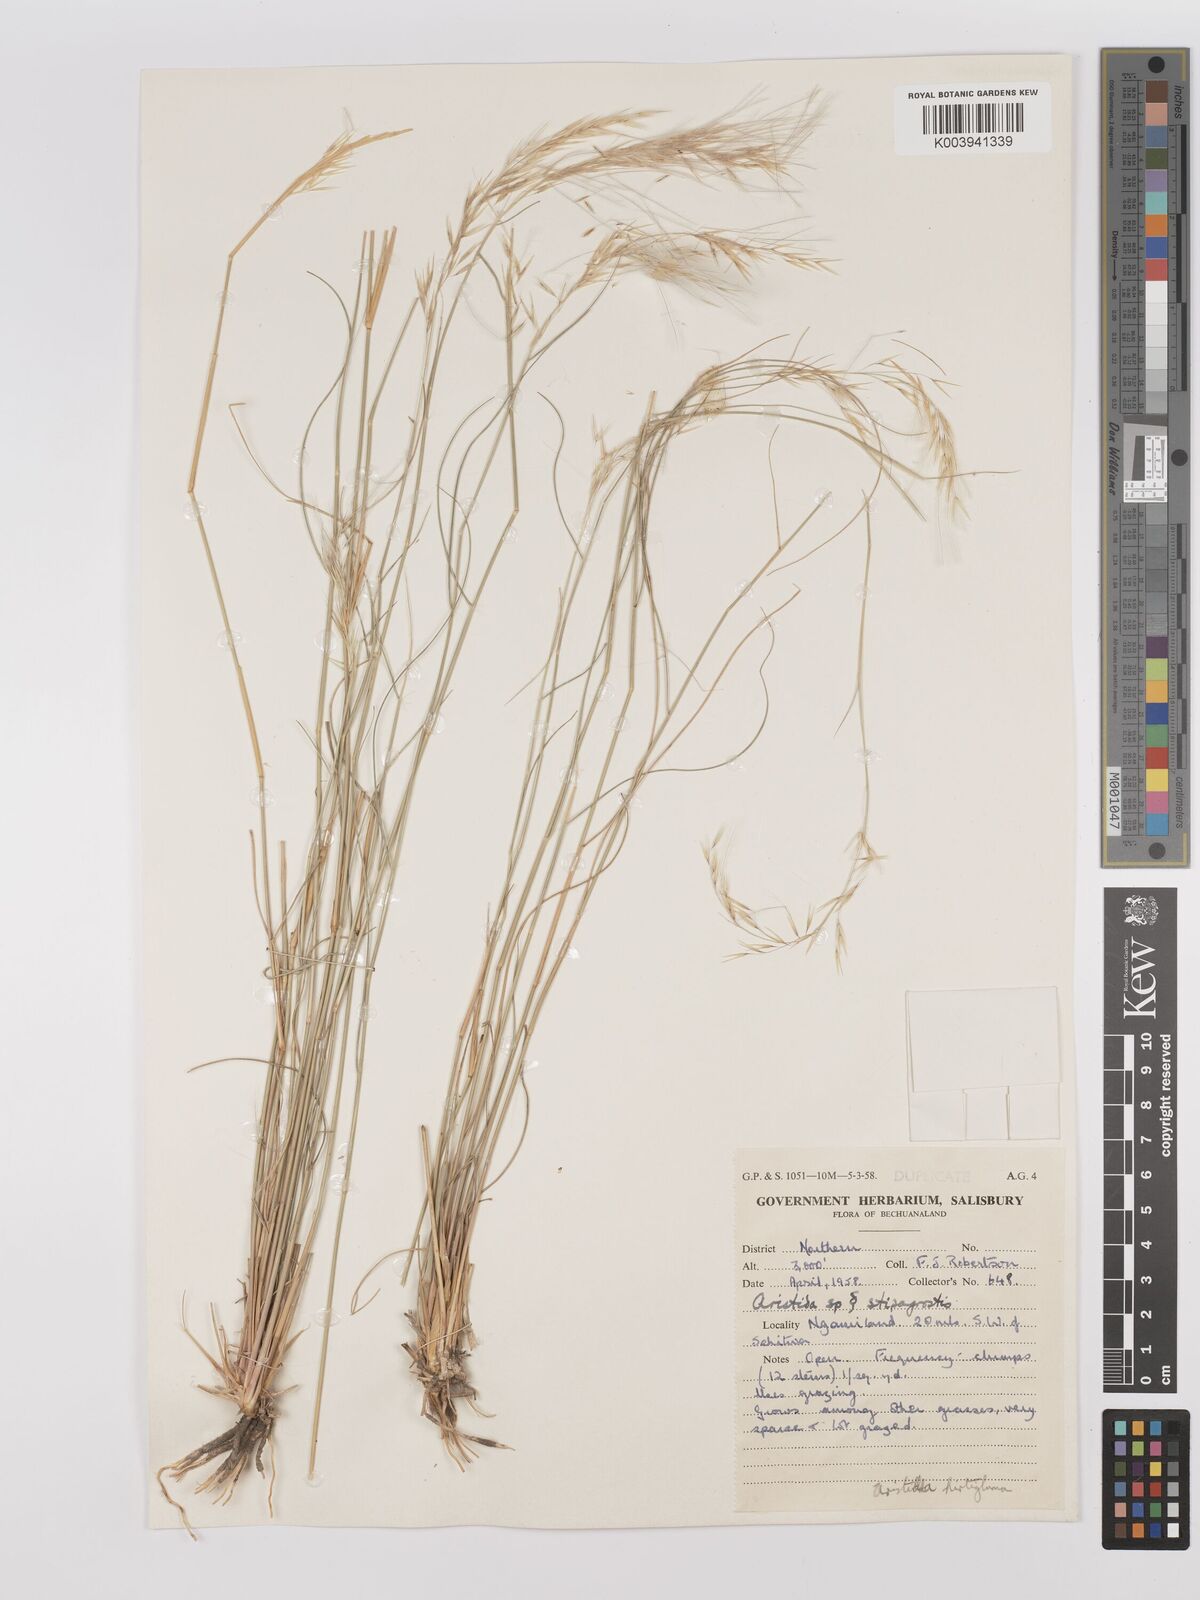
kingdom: Plantae
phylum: Tracheophyta
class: Liliopsida
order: Poales
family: Poaceae
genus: Stipagrostis
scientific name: Stipagrostis hirtigluma
